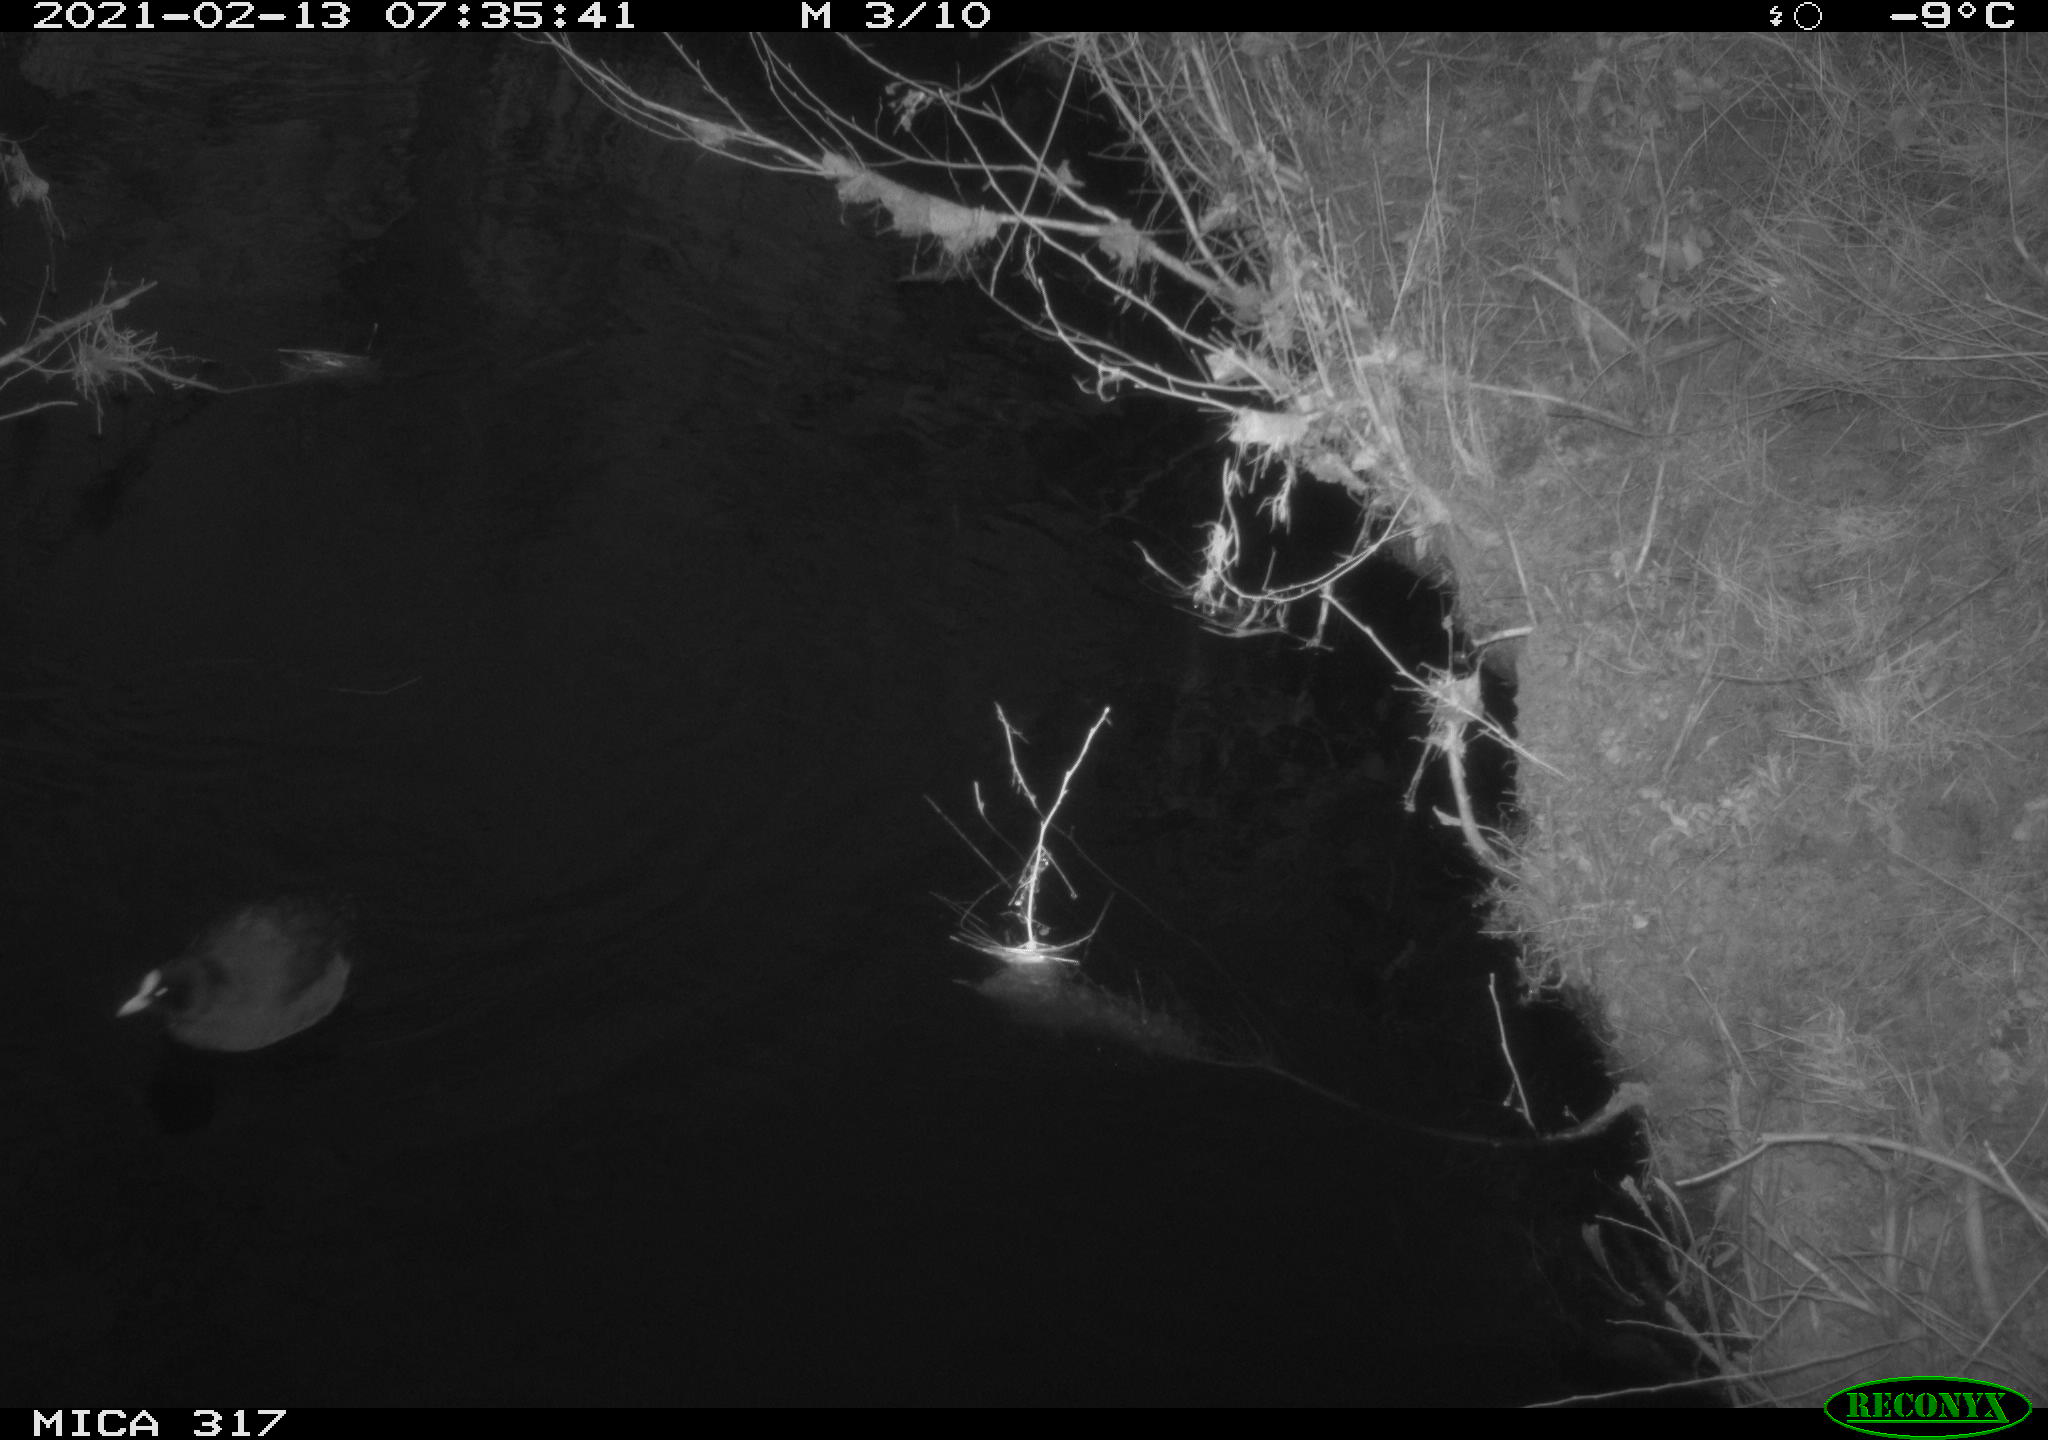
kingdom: Animalia
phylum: Chordata
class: Aves
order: Gruiformes
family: Rallidae
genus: Fulica
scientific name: Fulica atra
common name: Eurasian coot
